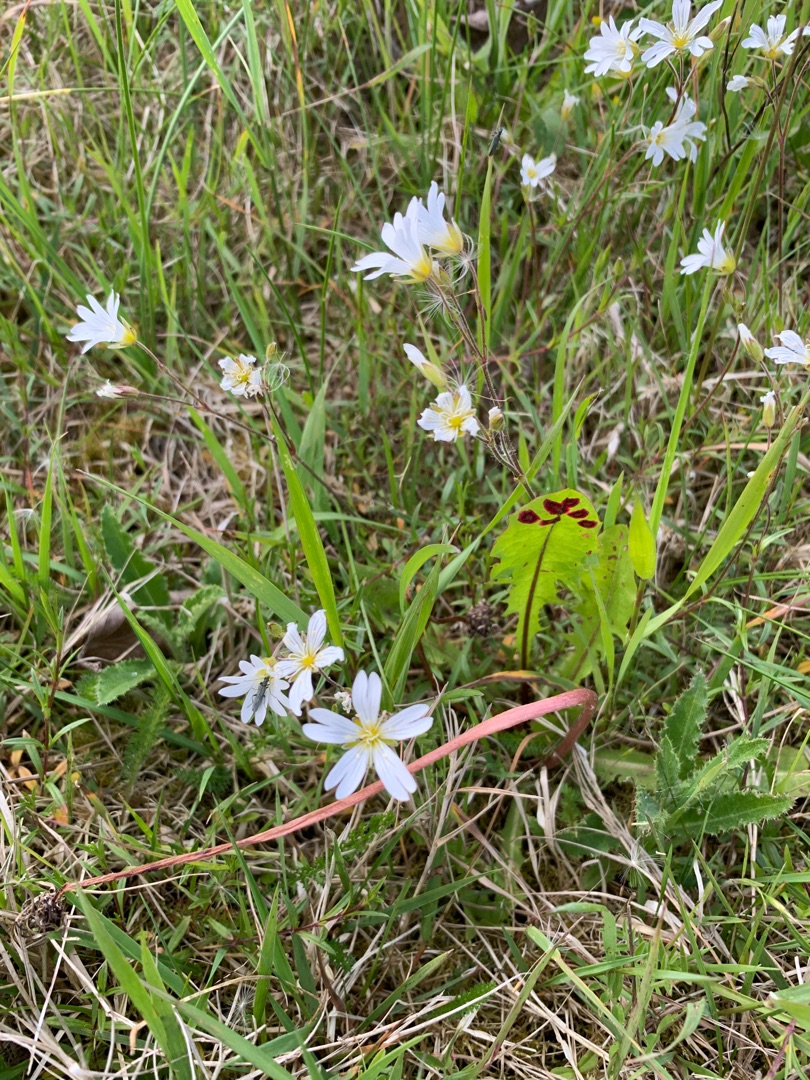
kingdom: Plantae
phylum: Tracheophyta
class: Magnoliopsida
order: Caryophyllales
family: Caryophyllaceae
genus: Cerastium
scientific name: Cerastium arvense
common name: Storblomstret hønsetarm
